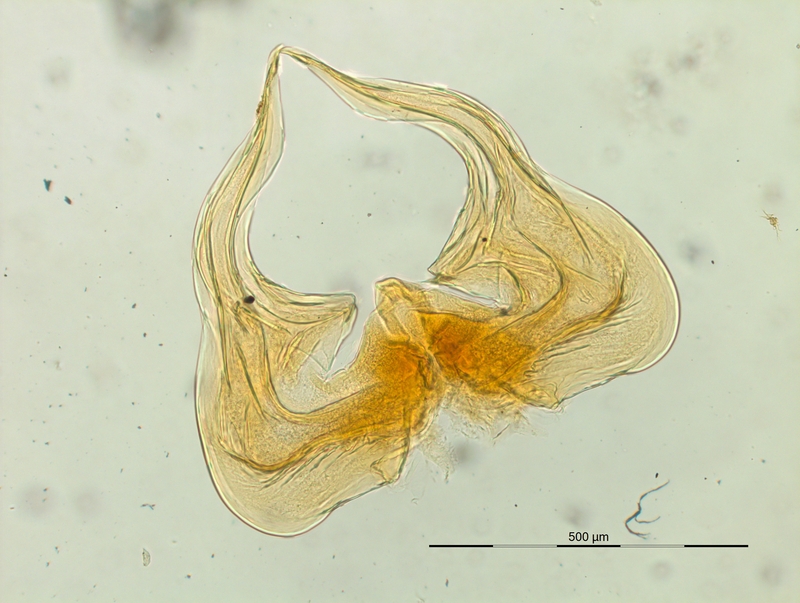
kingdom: Animalia
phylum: Arthropoda
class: Diplopoda
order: Chordeumatida
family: Craspedosomatidae
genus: Listrocheiritium
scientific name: Listrocheiritium noricum
